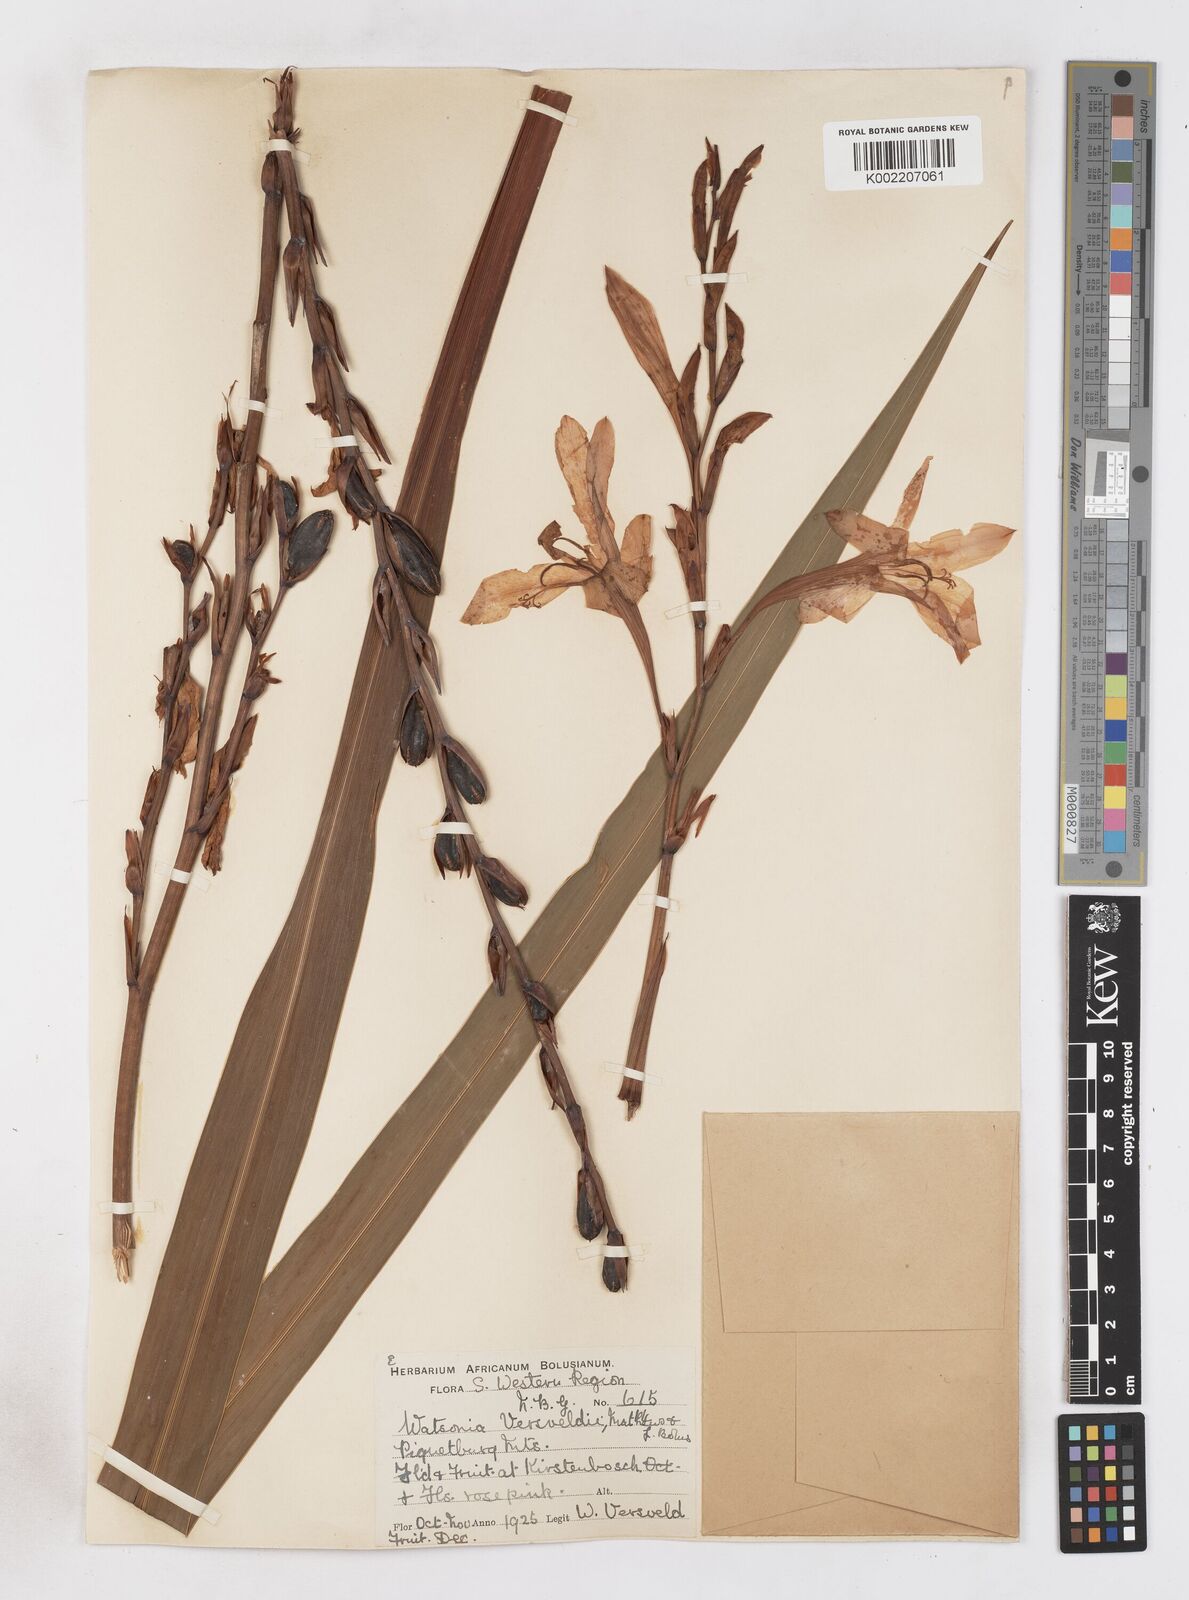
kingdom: Plantae
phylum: Tracheophyta
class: Liliopsida
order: Asparagales
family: Iridaceae
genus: Watsonia
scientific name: Watsonia versfeldii
